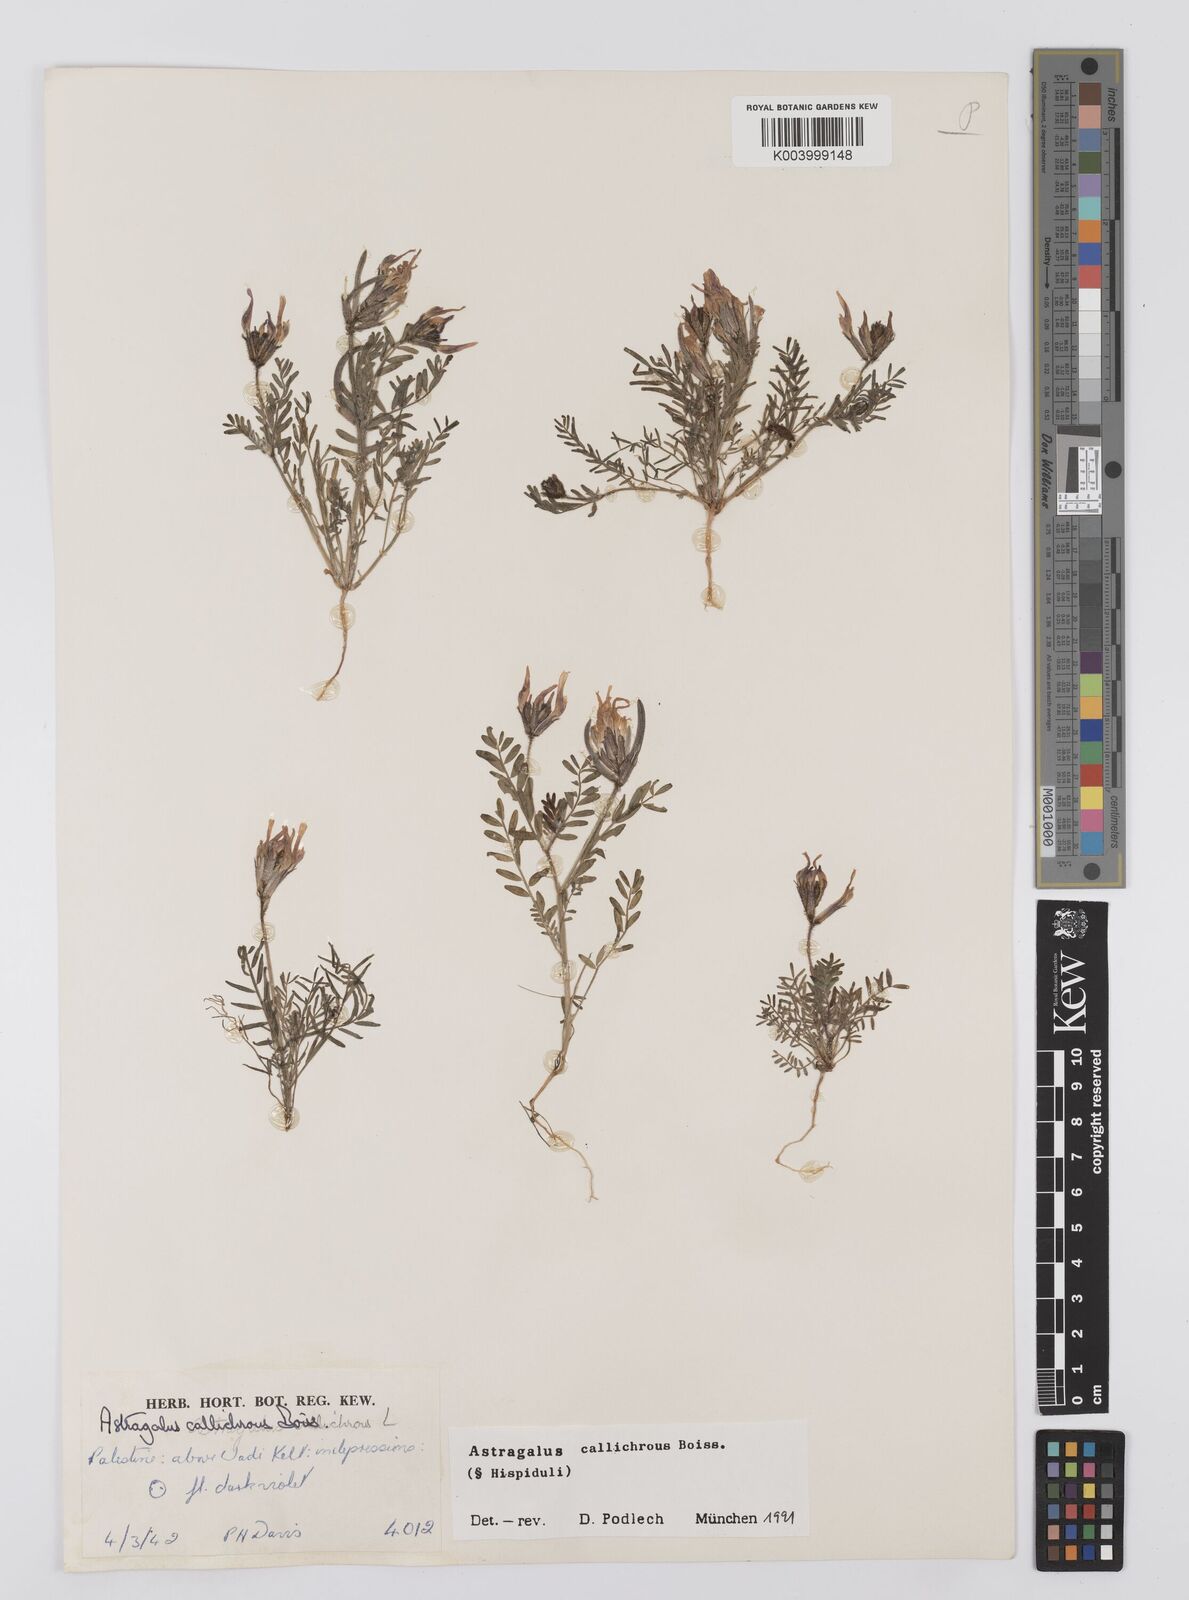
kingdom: Plantae
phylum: Tracheophyta
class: Magnoliopsida
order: Fabales
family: Fabaceae
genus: Astragalus
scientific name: Astragalus callichrous
